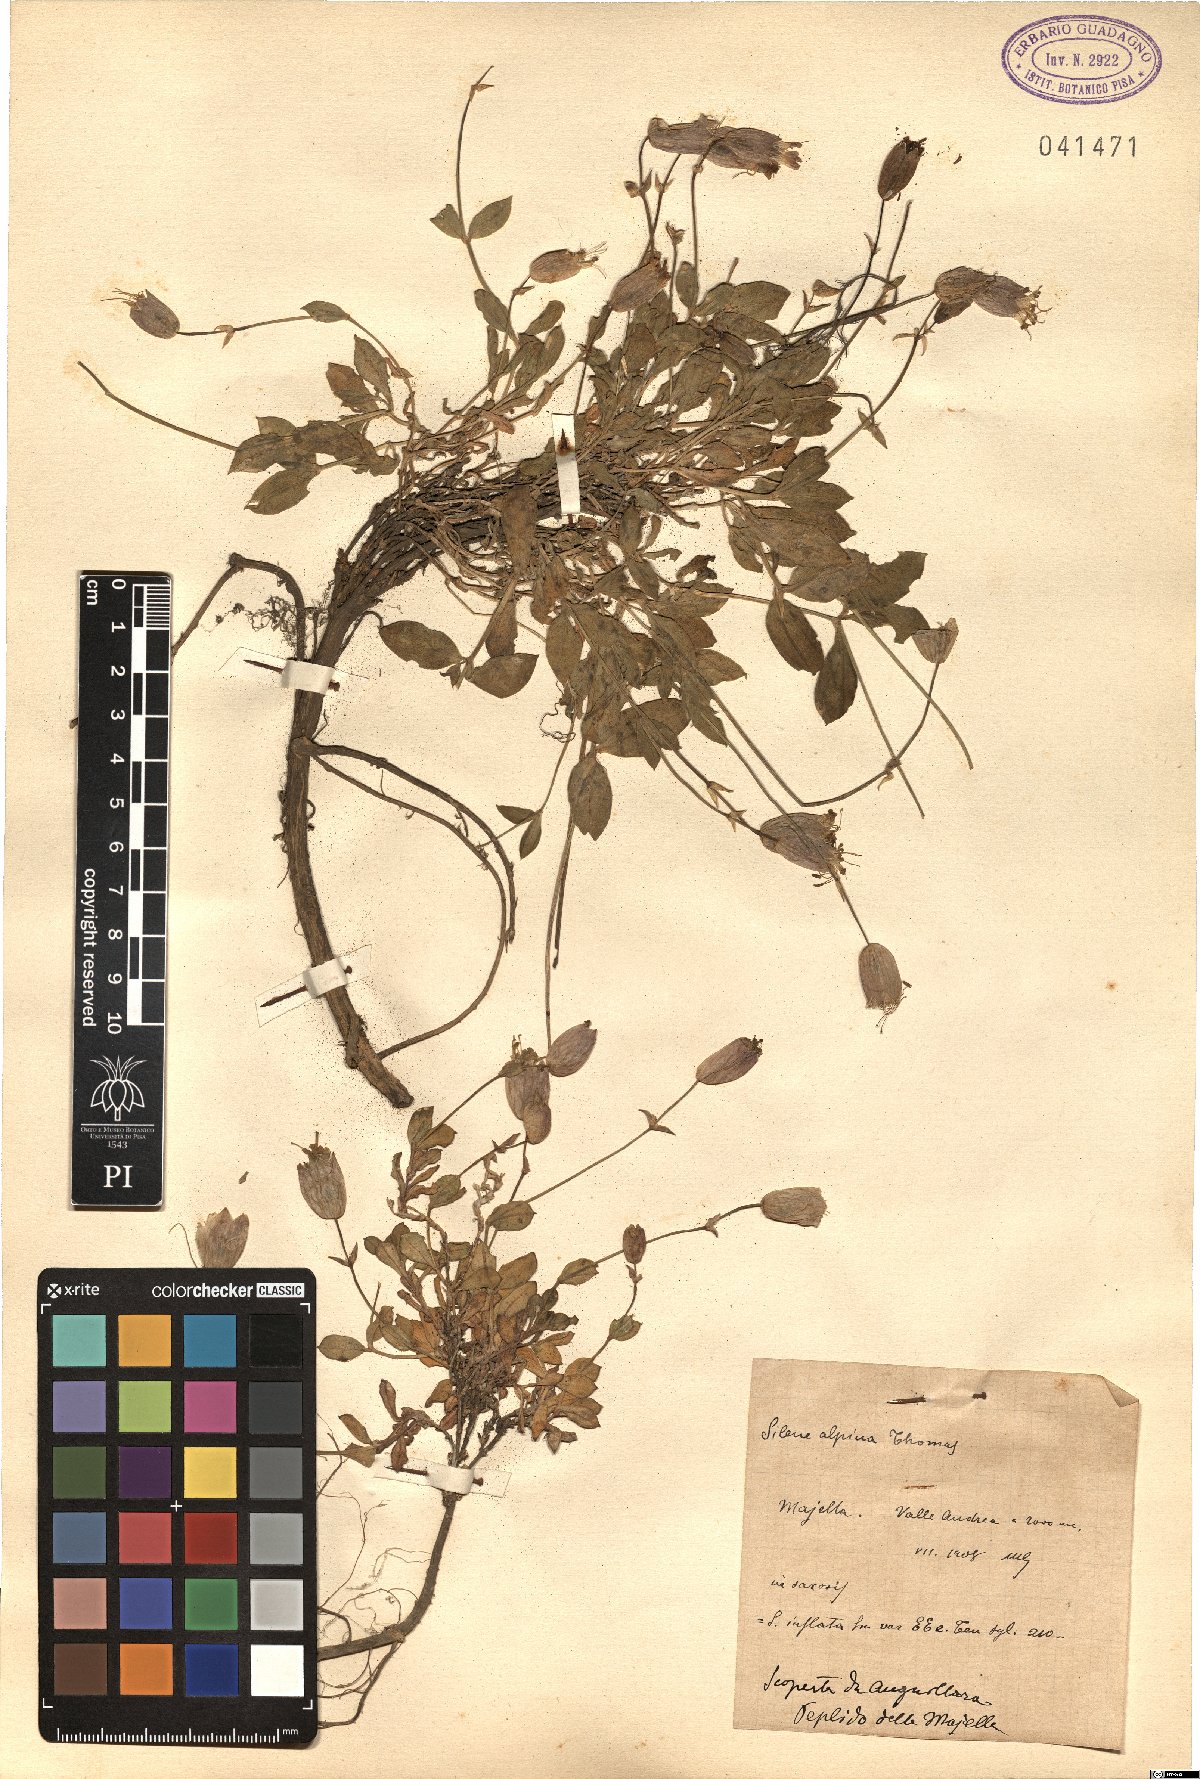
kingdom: Plantae
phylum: Tracheophyta
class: Magnoliopsida
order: Caryophyllales
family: Caryophyllaceae
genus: Silene
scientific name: Silene vulgaris
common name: Bladder campion
